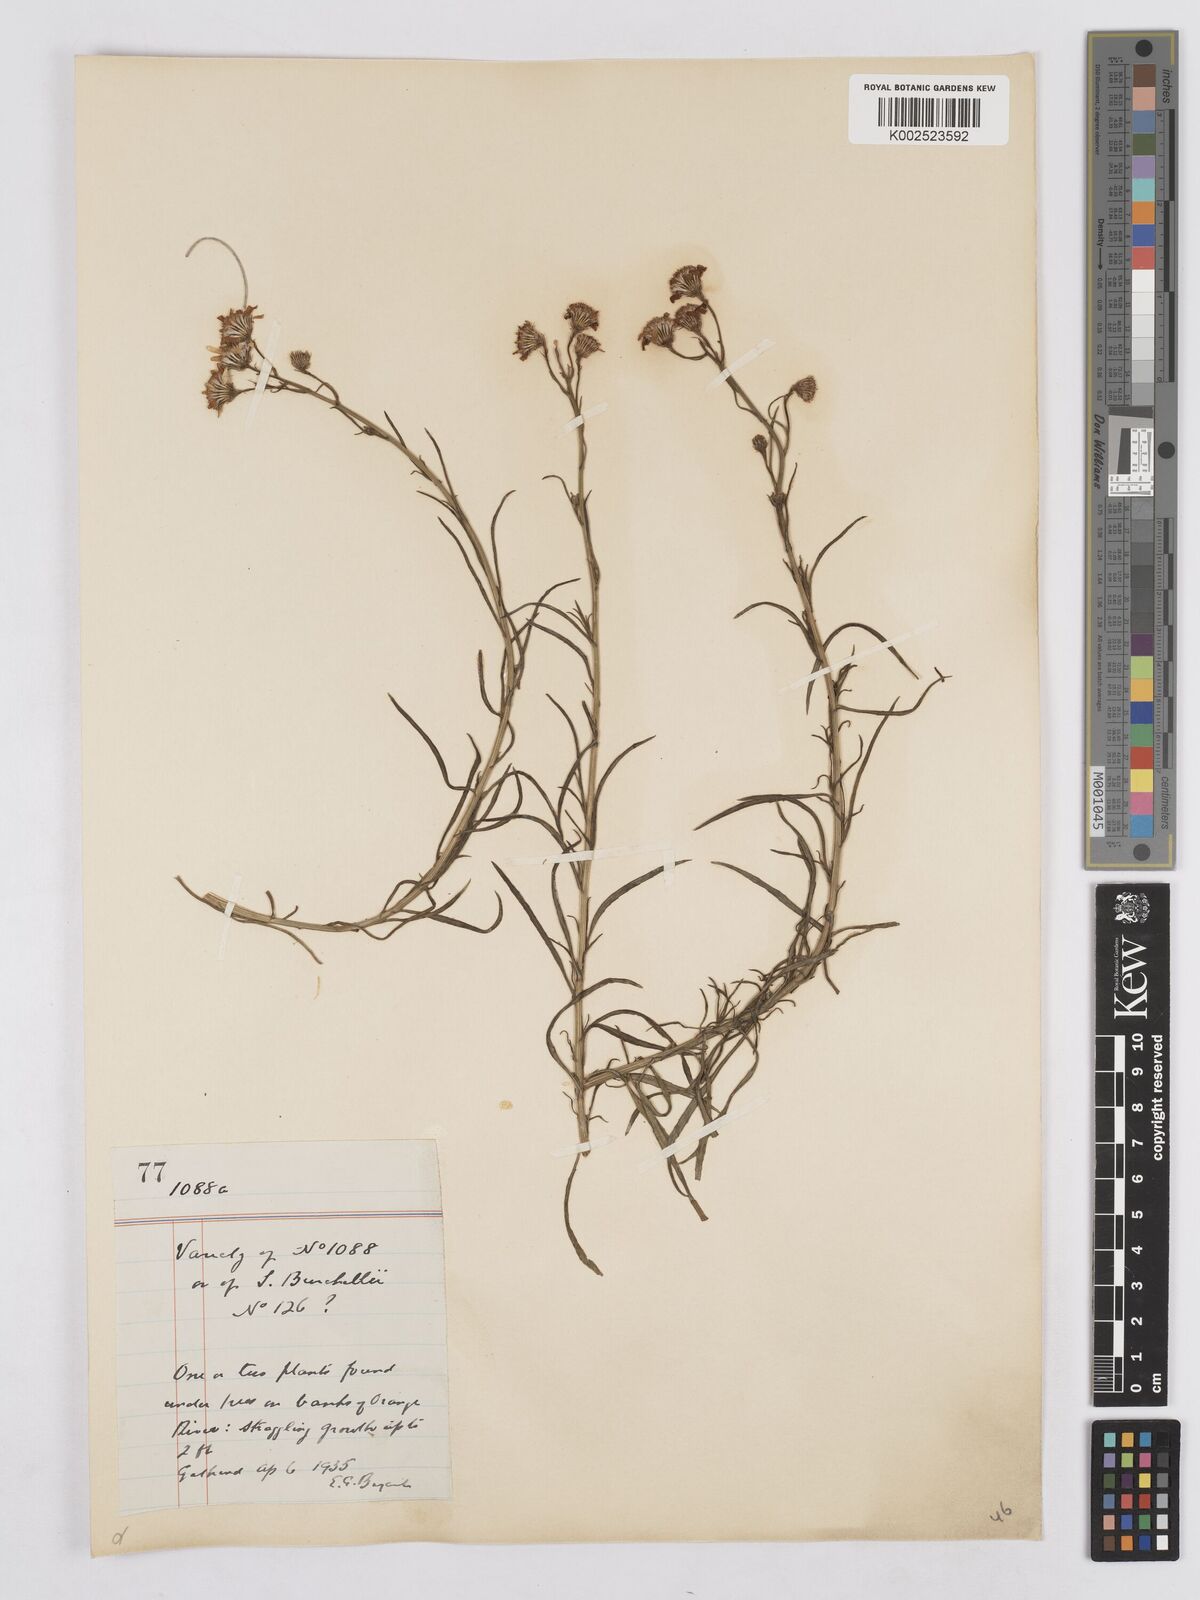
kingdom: Plantae
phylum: Tracheophyta
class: Magnoliopsida
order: Asterales
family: Asteraceae
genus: Senecio
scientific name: Senecio inaequidens
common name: Narrow-leaved ragwort
